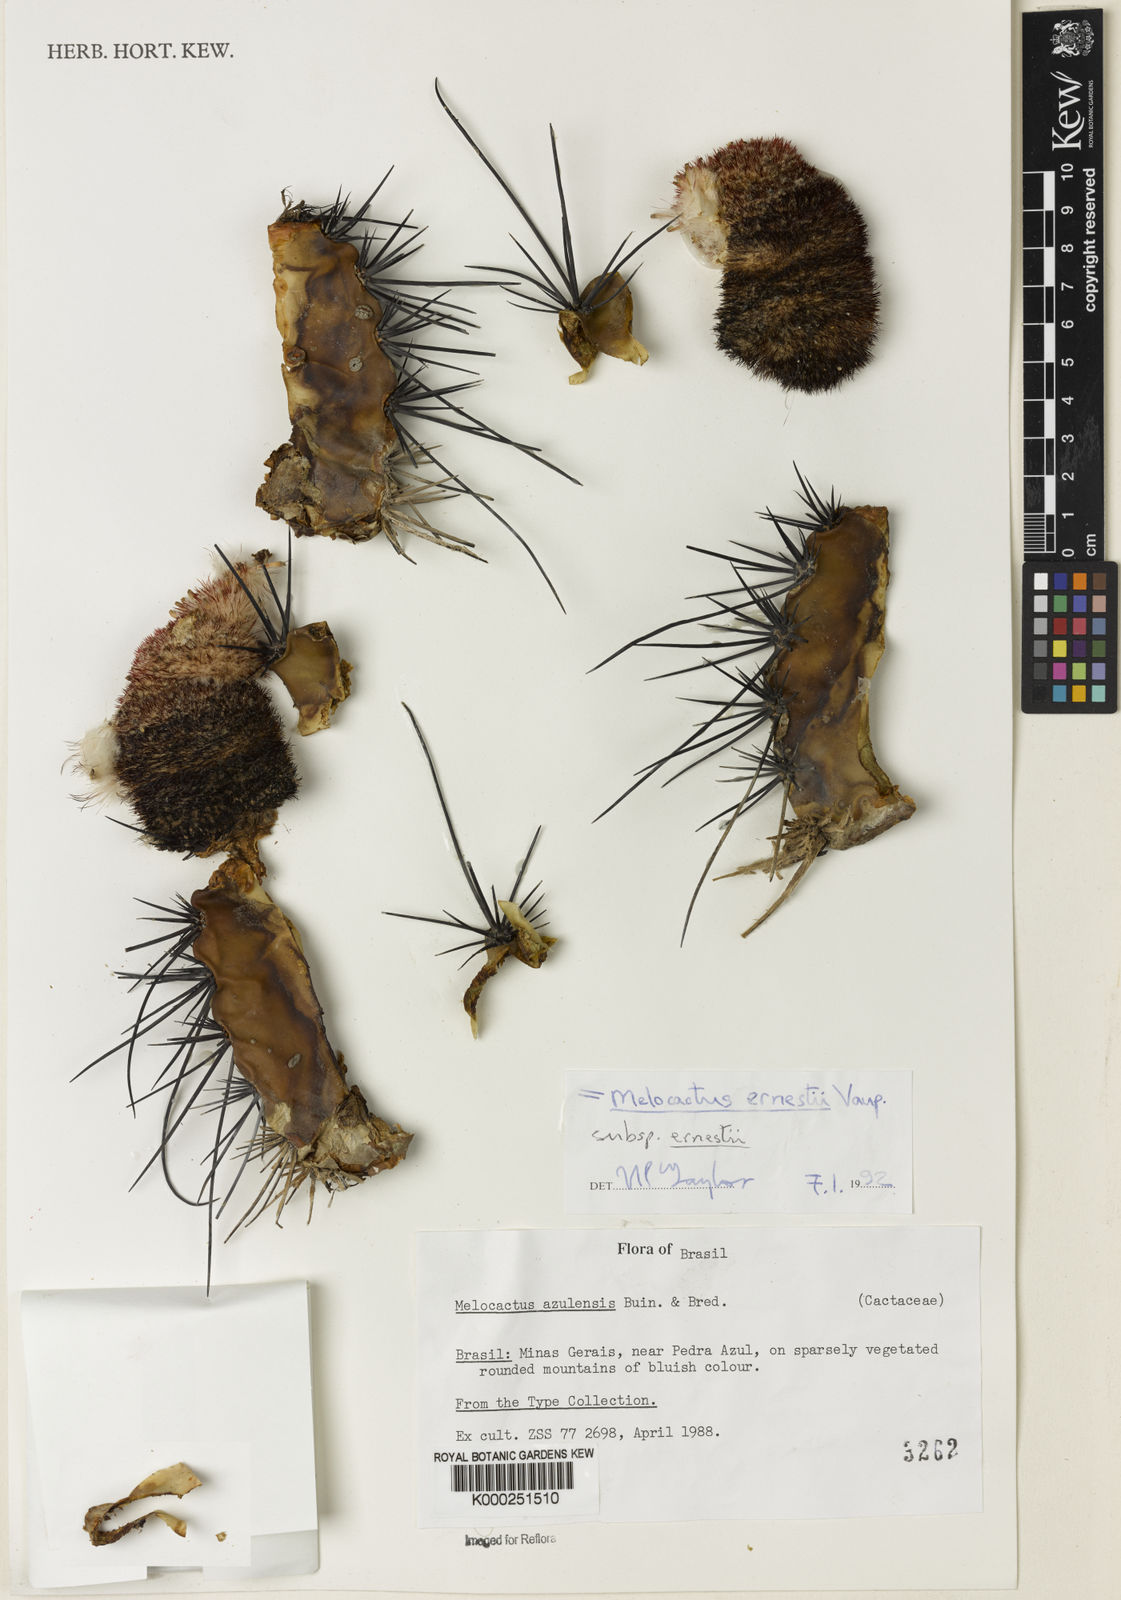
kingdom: Plantae
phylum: Tracheophyta
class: Magnoliopsida
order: Caryophyllales
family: Cactaceae
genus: Melocactus
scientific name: Melocactus
